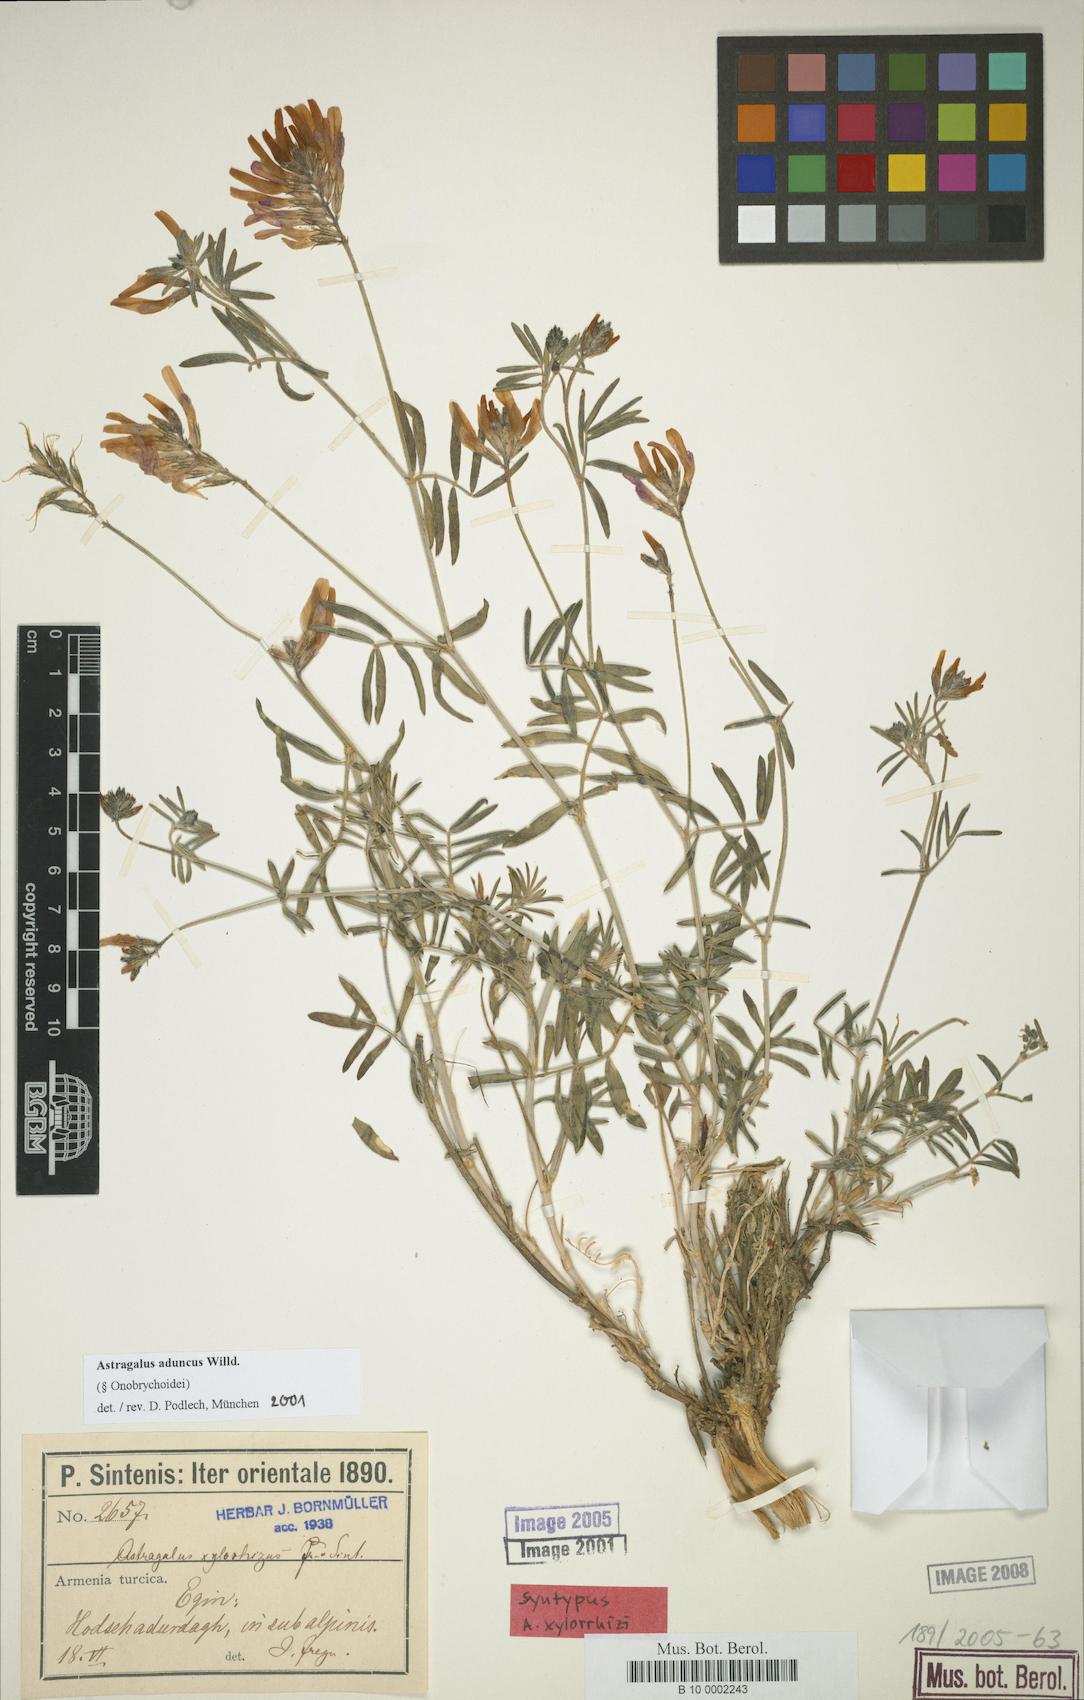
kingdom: Plantae
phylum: Tracheophyta
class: Magnoliopsida
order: Fabales
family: Fabaceae
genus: Astragalus
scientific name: Astragalus aduncus
